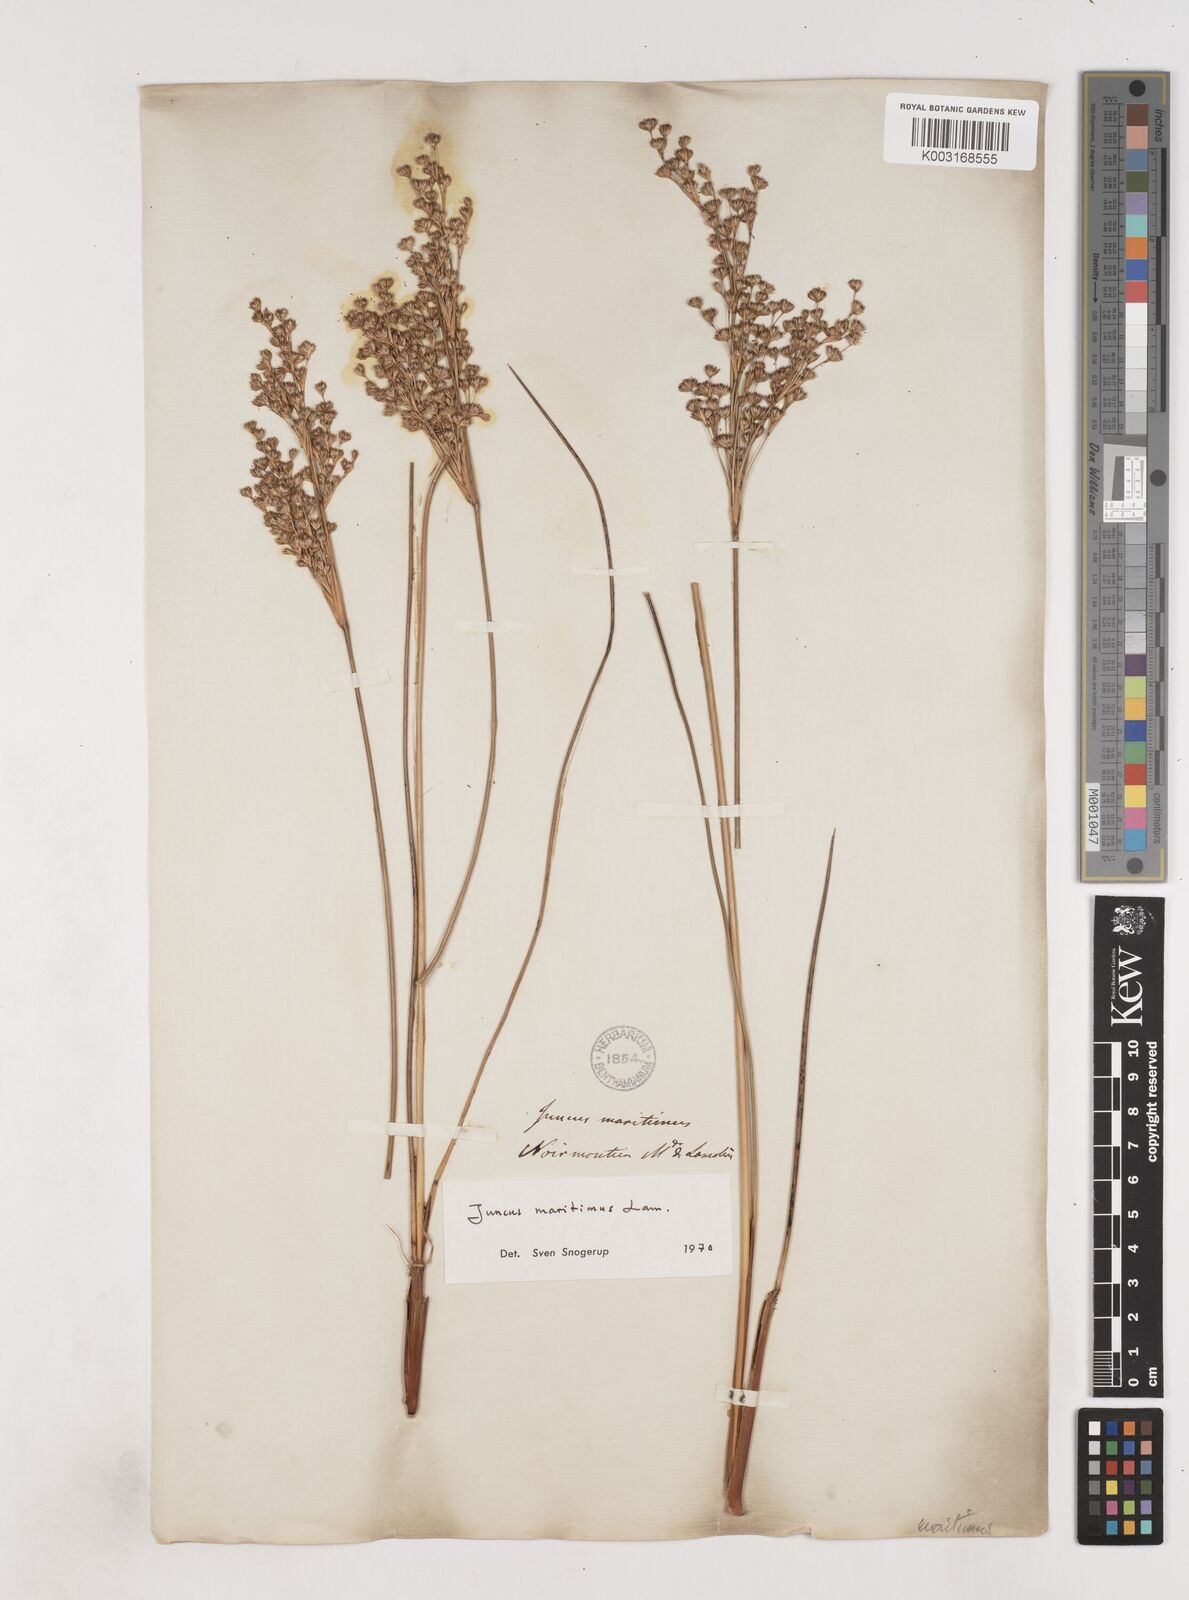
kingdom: Plantae
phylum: Tracheophyta
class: Liliopsida
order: Poales
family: Juncaceae
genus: Juncus
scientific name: Juncus maritimus
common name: Sea rush
